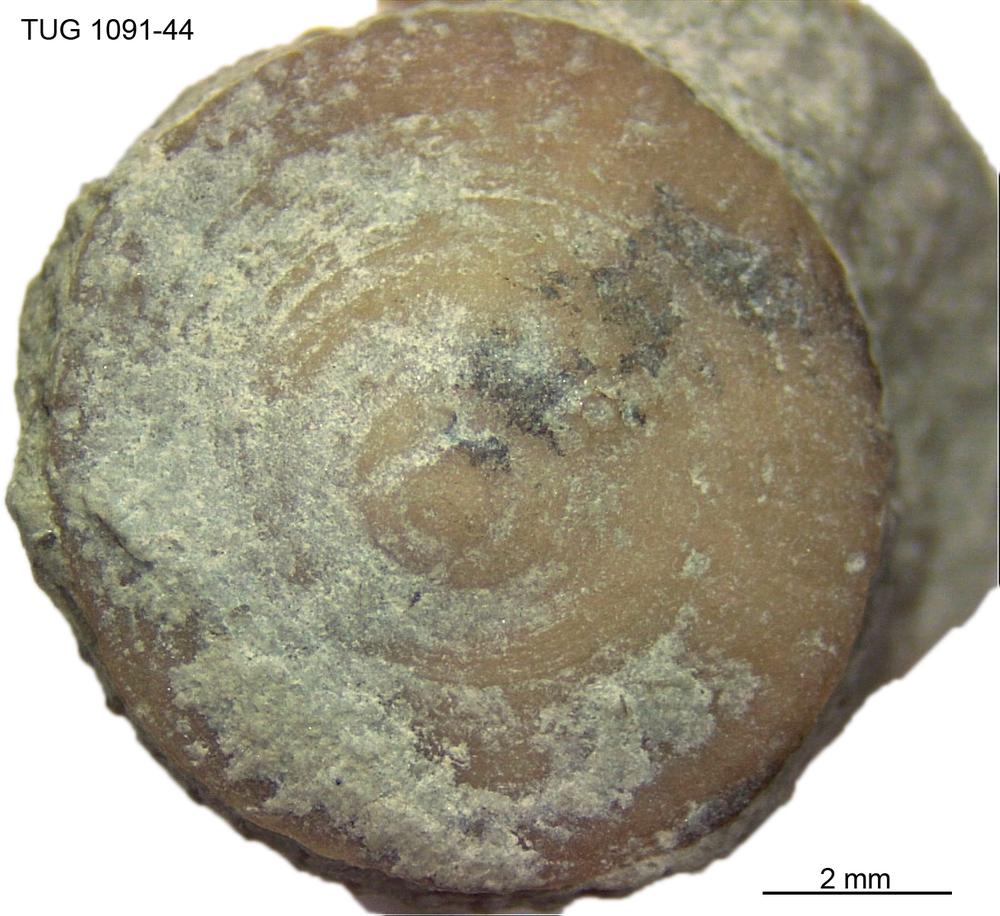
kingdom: Animalia
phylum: Cnidaria
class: Anthozoa
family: Palaeocyclidae
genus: Palaeocyclus
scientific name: Palaeocyclus Porpites porpita
